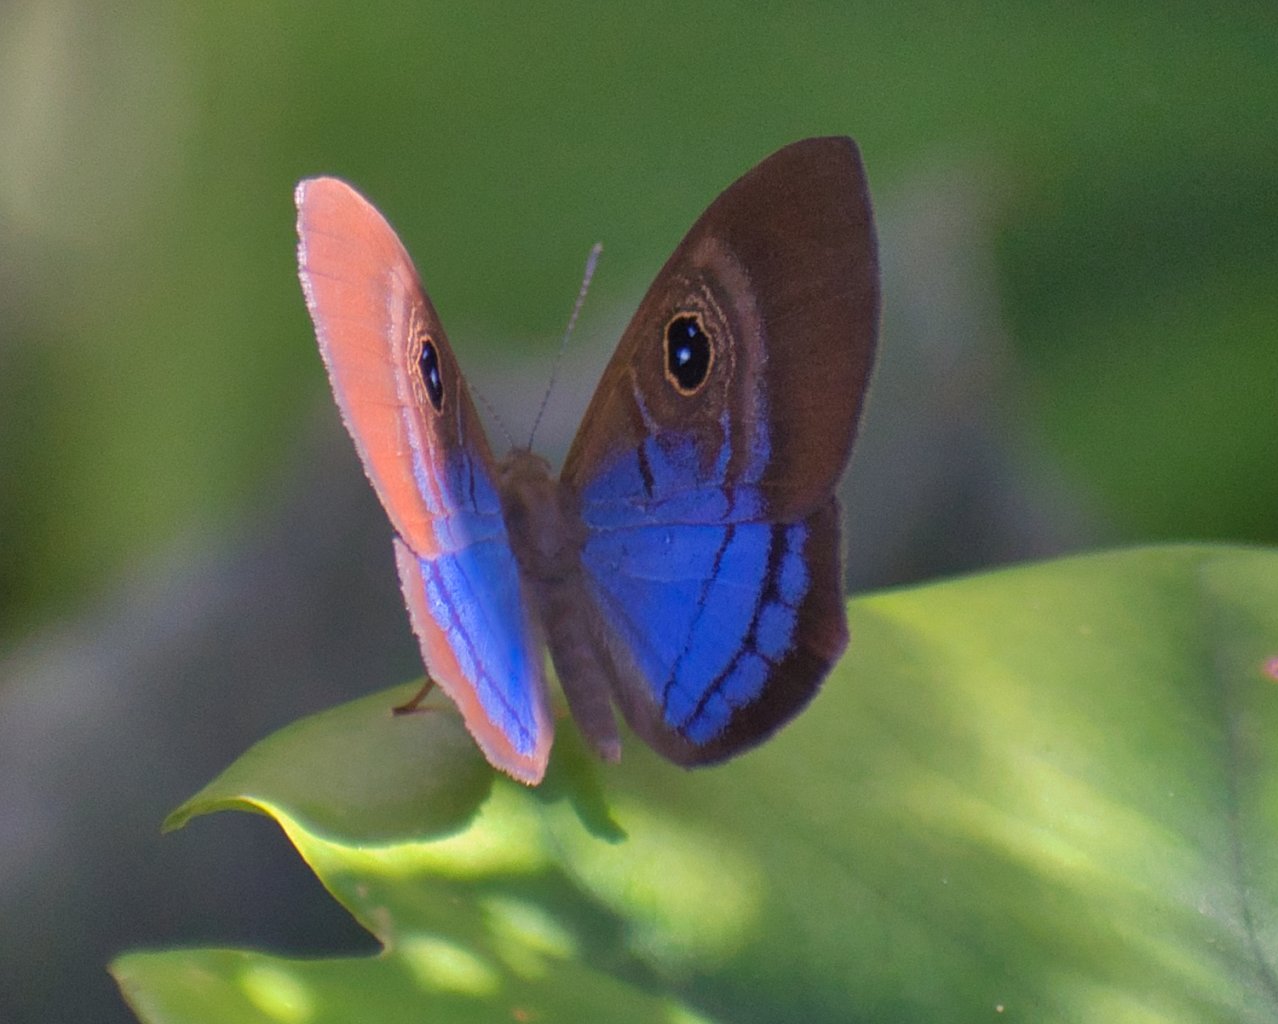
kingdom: Animalia
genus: Mesosemia
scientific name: Mesosemia lamachus
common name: Purple-washed Eyed-Metalmark
